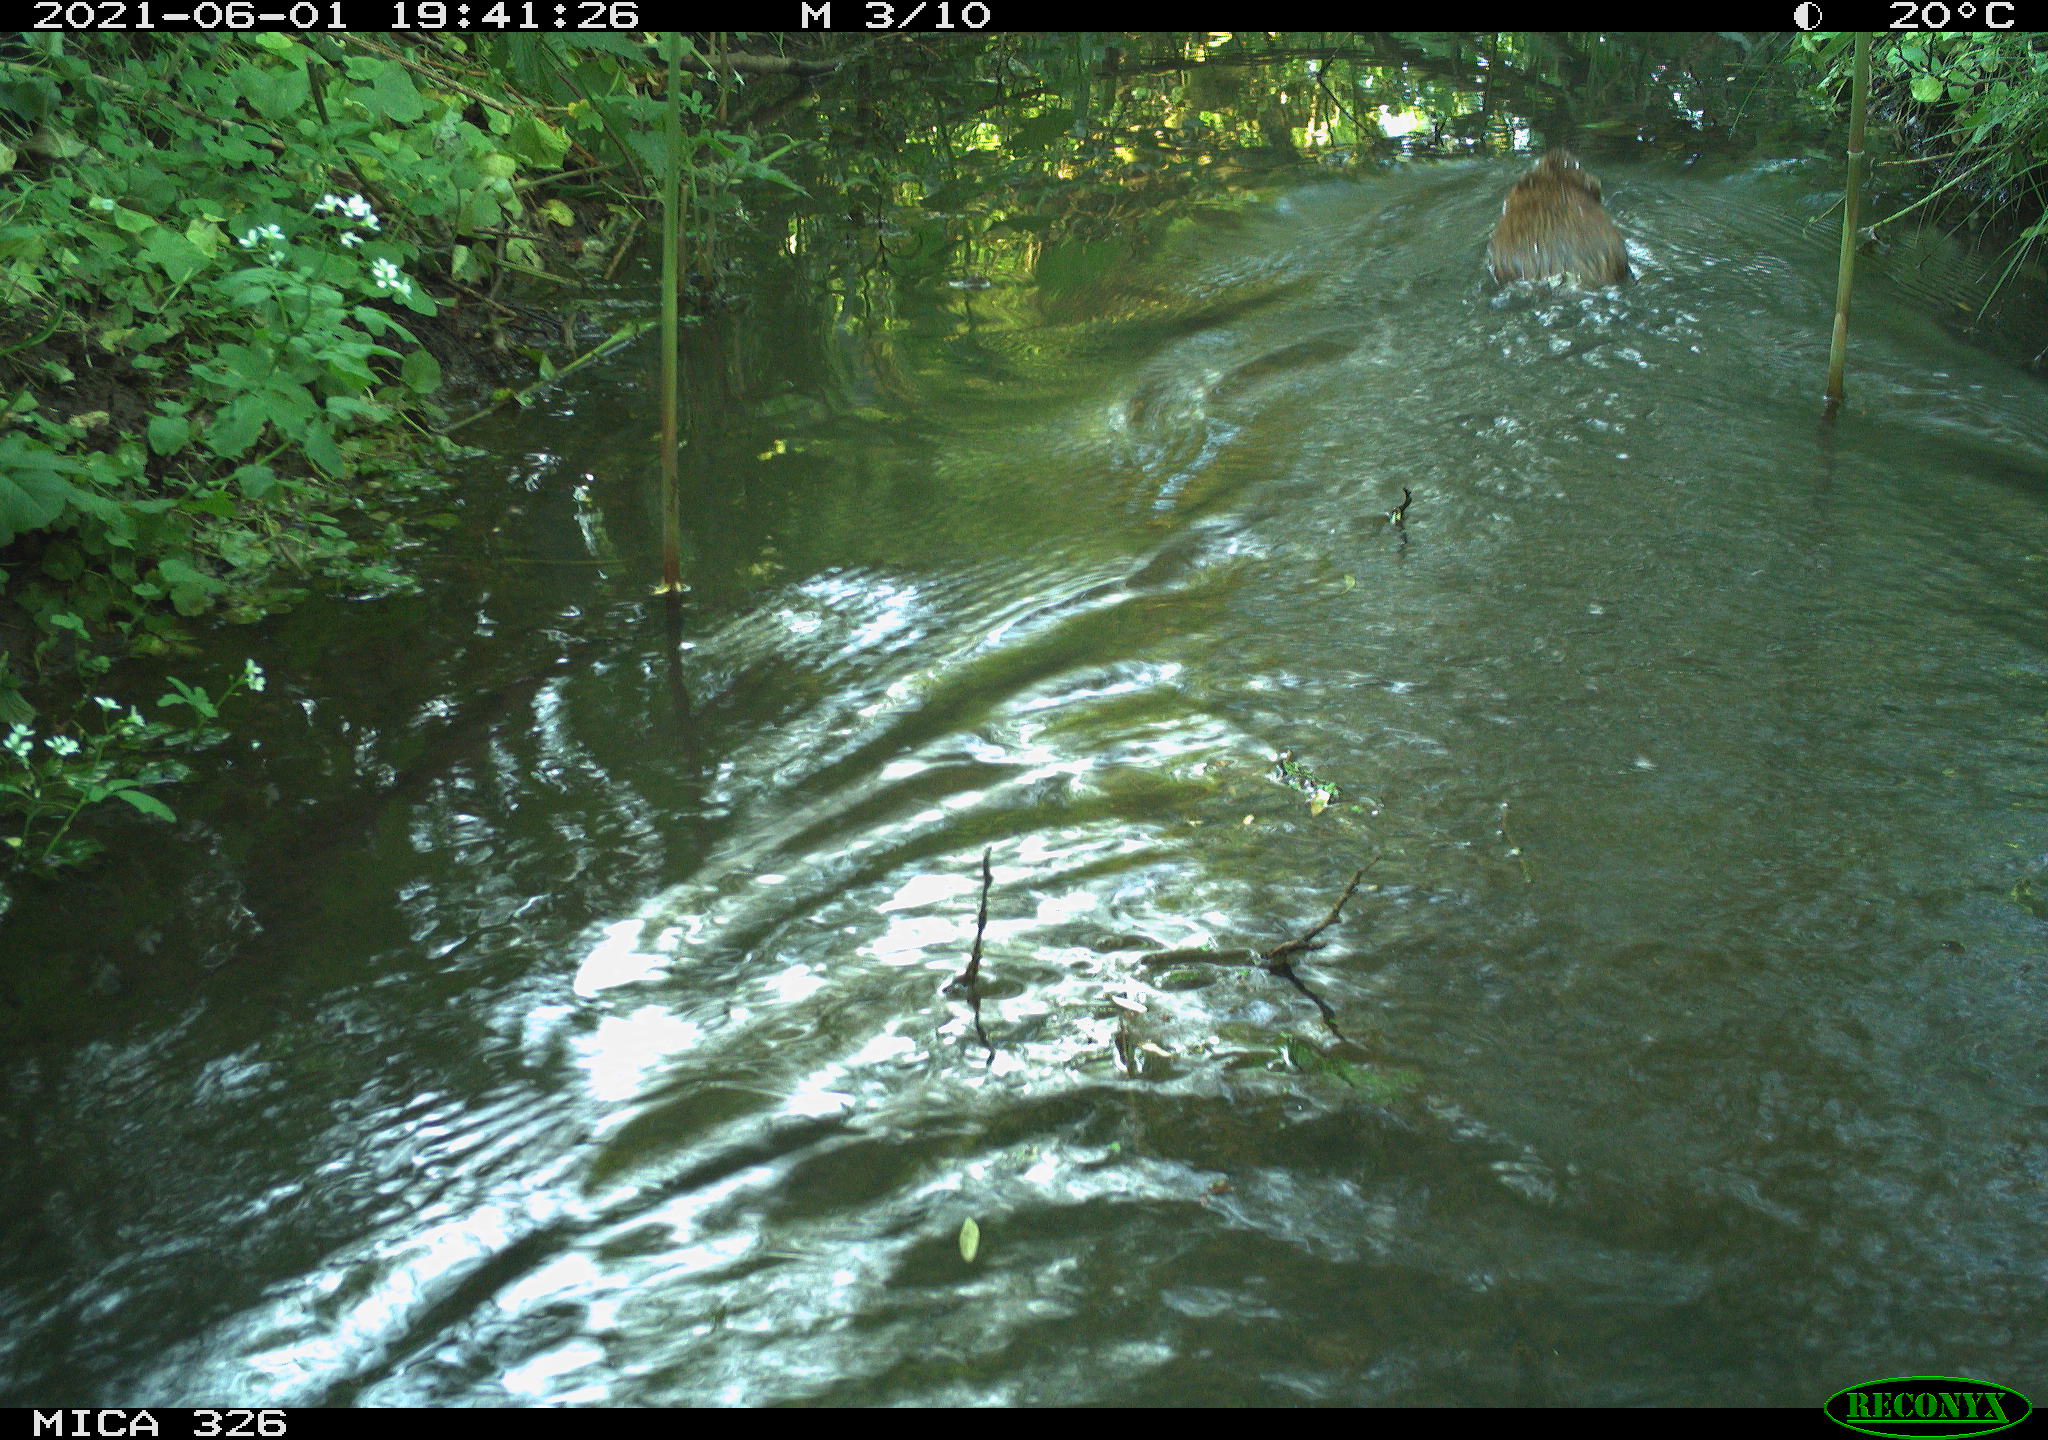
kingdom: Animalia
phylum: Chordata
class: Mammalia
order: Rodentia
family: Cricetidae
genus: Ondatra
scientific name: Ondatra zibethicus
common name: Muskrat
